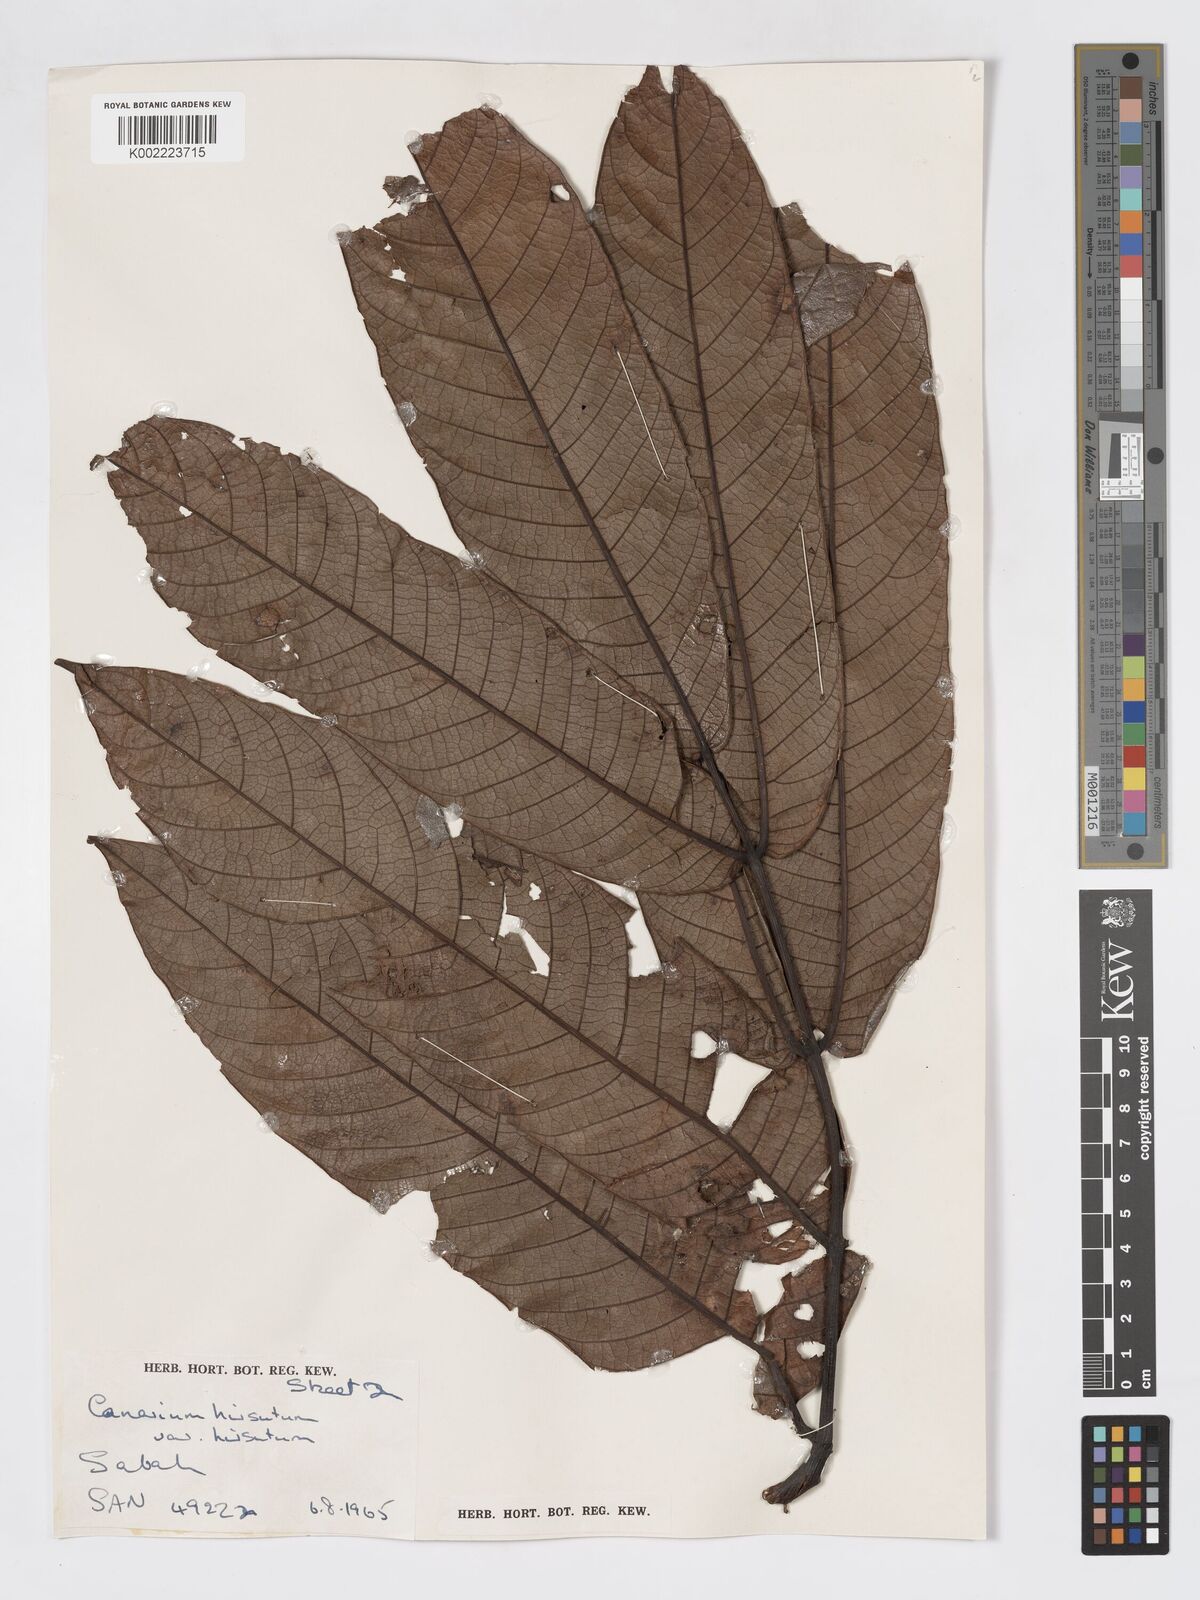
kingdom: Plantae
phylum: Tracheophyta
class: Magnoliopsida
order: Sapindales
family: Burseraceae
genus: Canarium
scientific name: Canarium hirsutum
